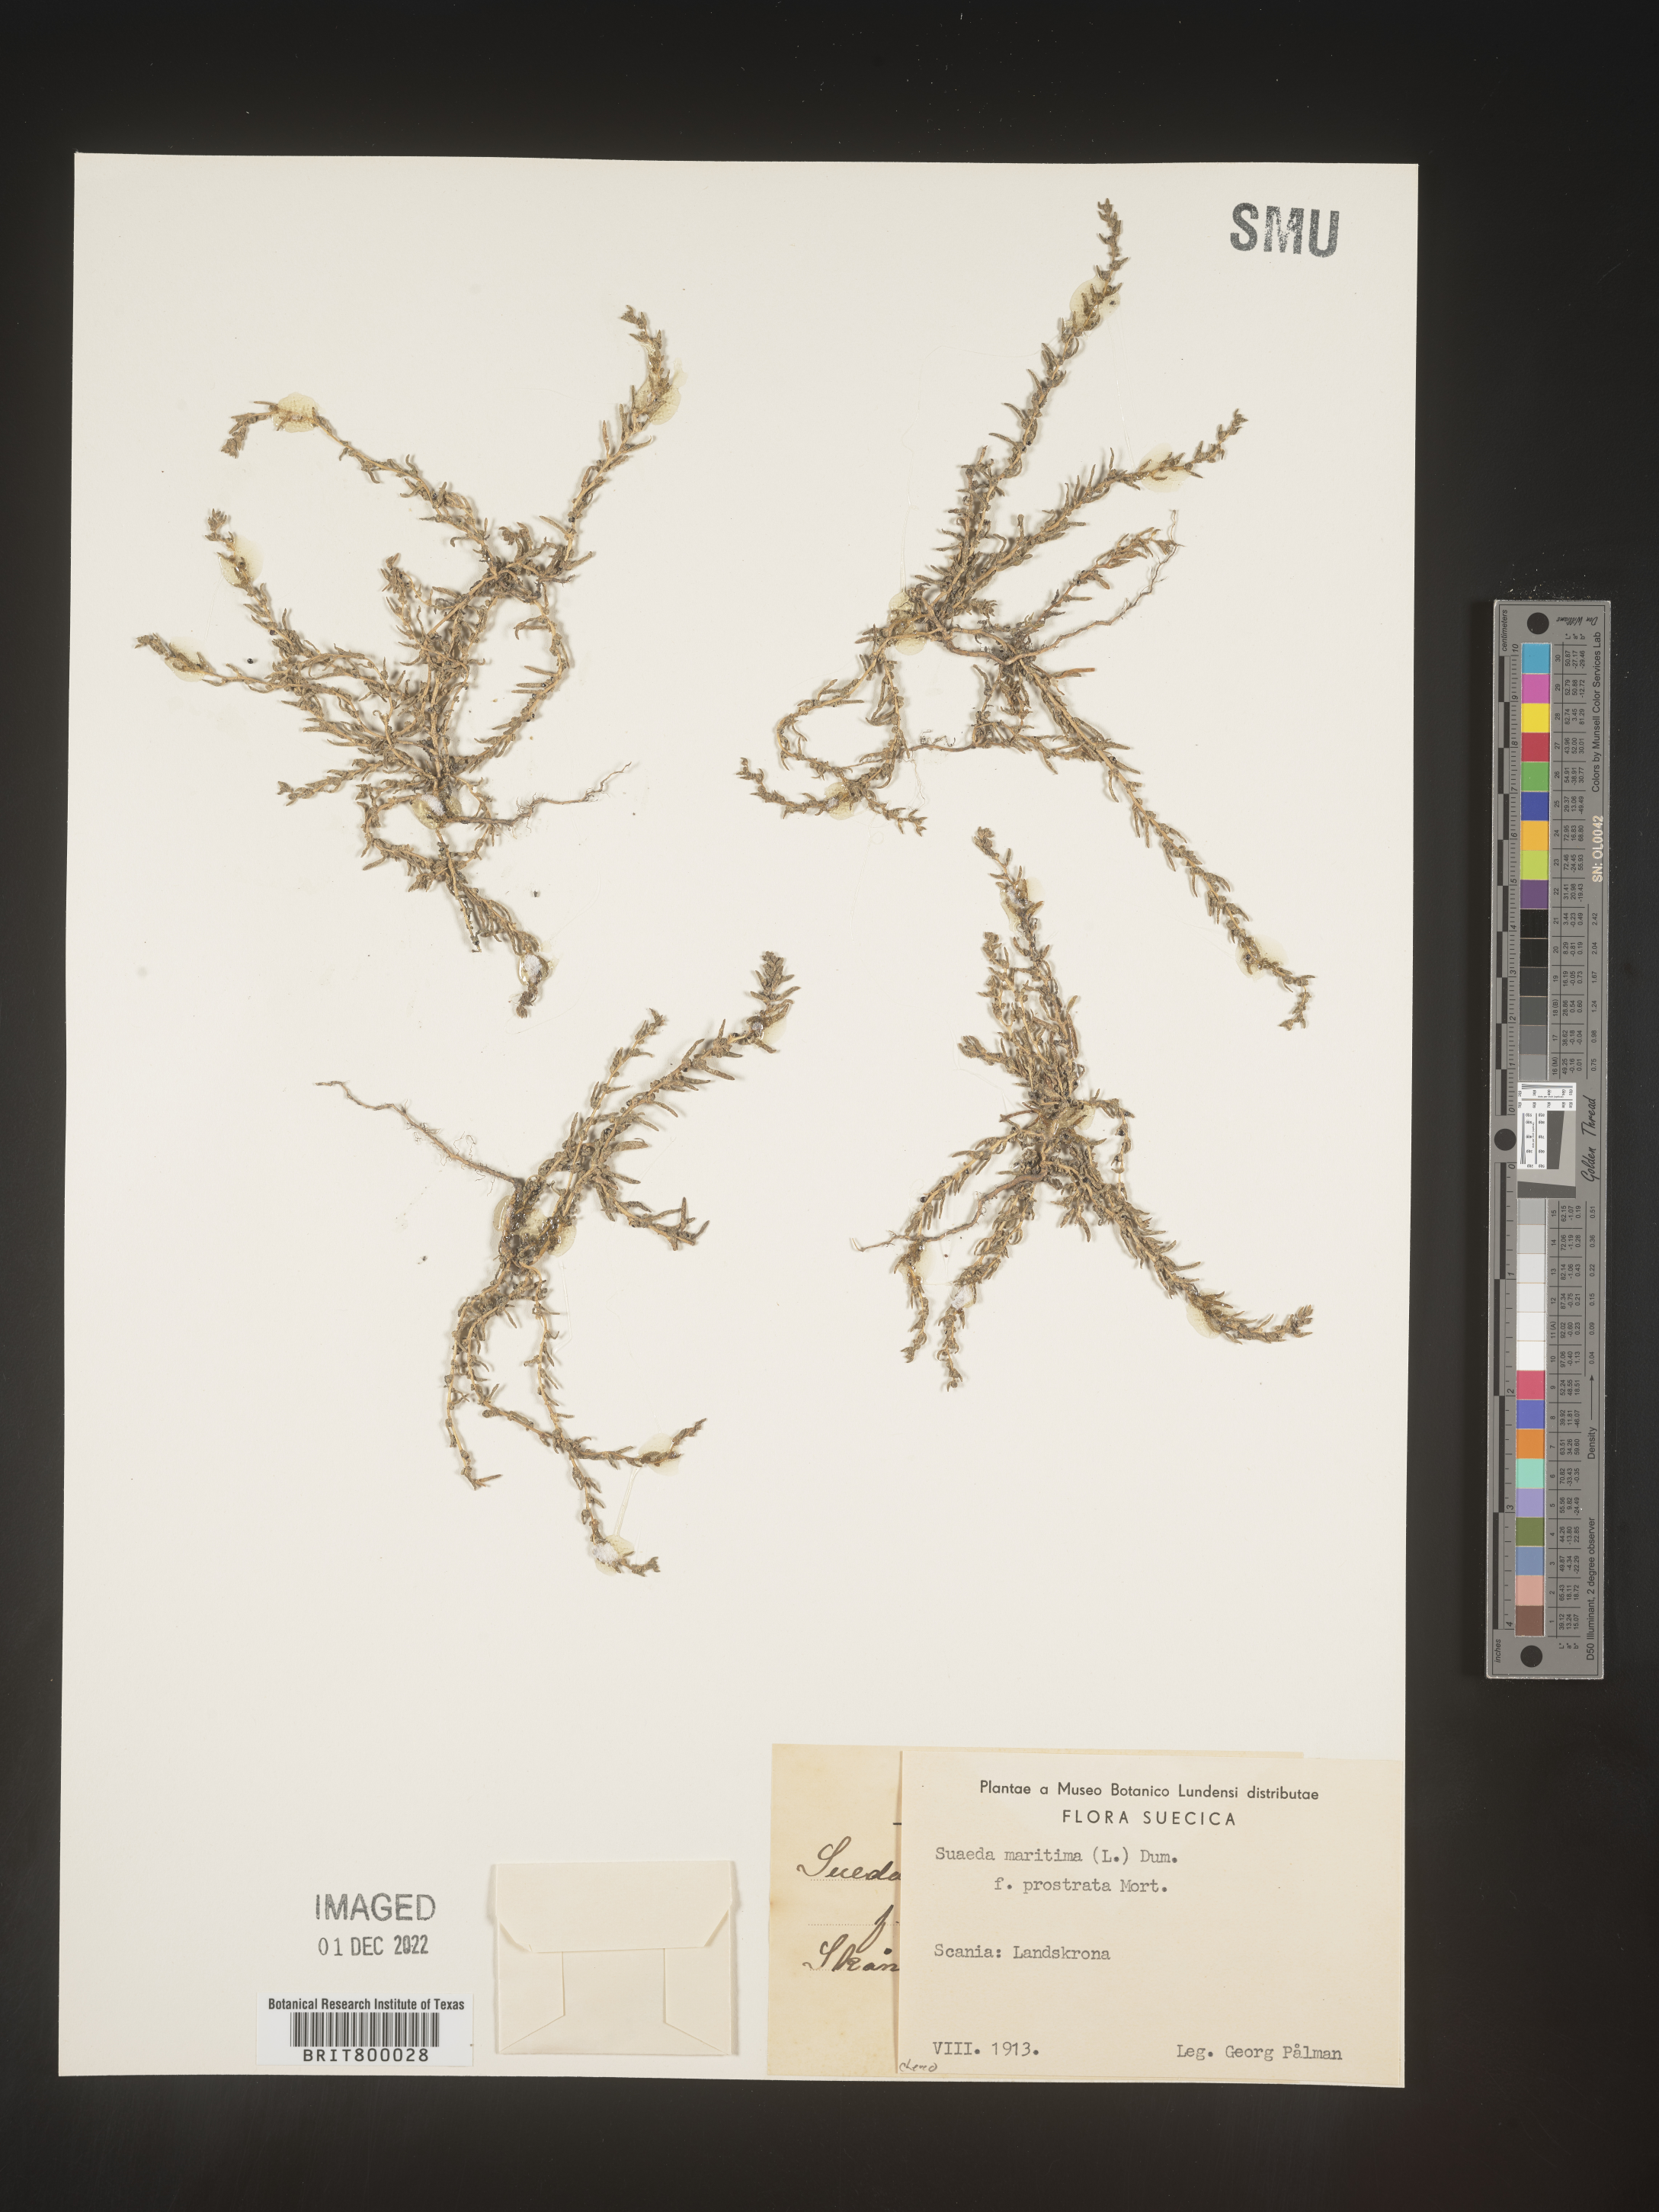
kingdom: Plantae
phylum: Tracheophyta
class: Magnoliopsida
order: Caryophyllales
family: Amaranthaceae
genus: Suaeda
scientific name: Suaeda
